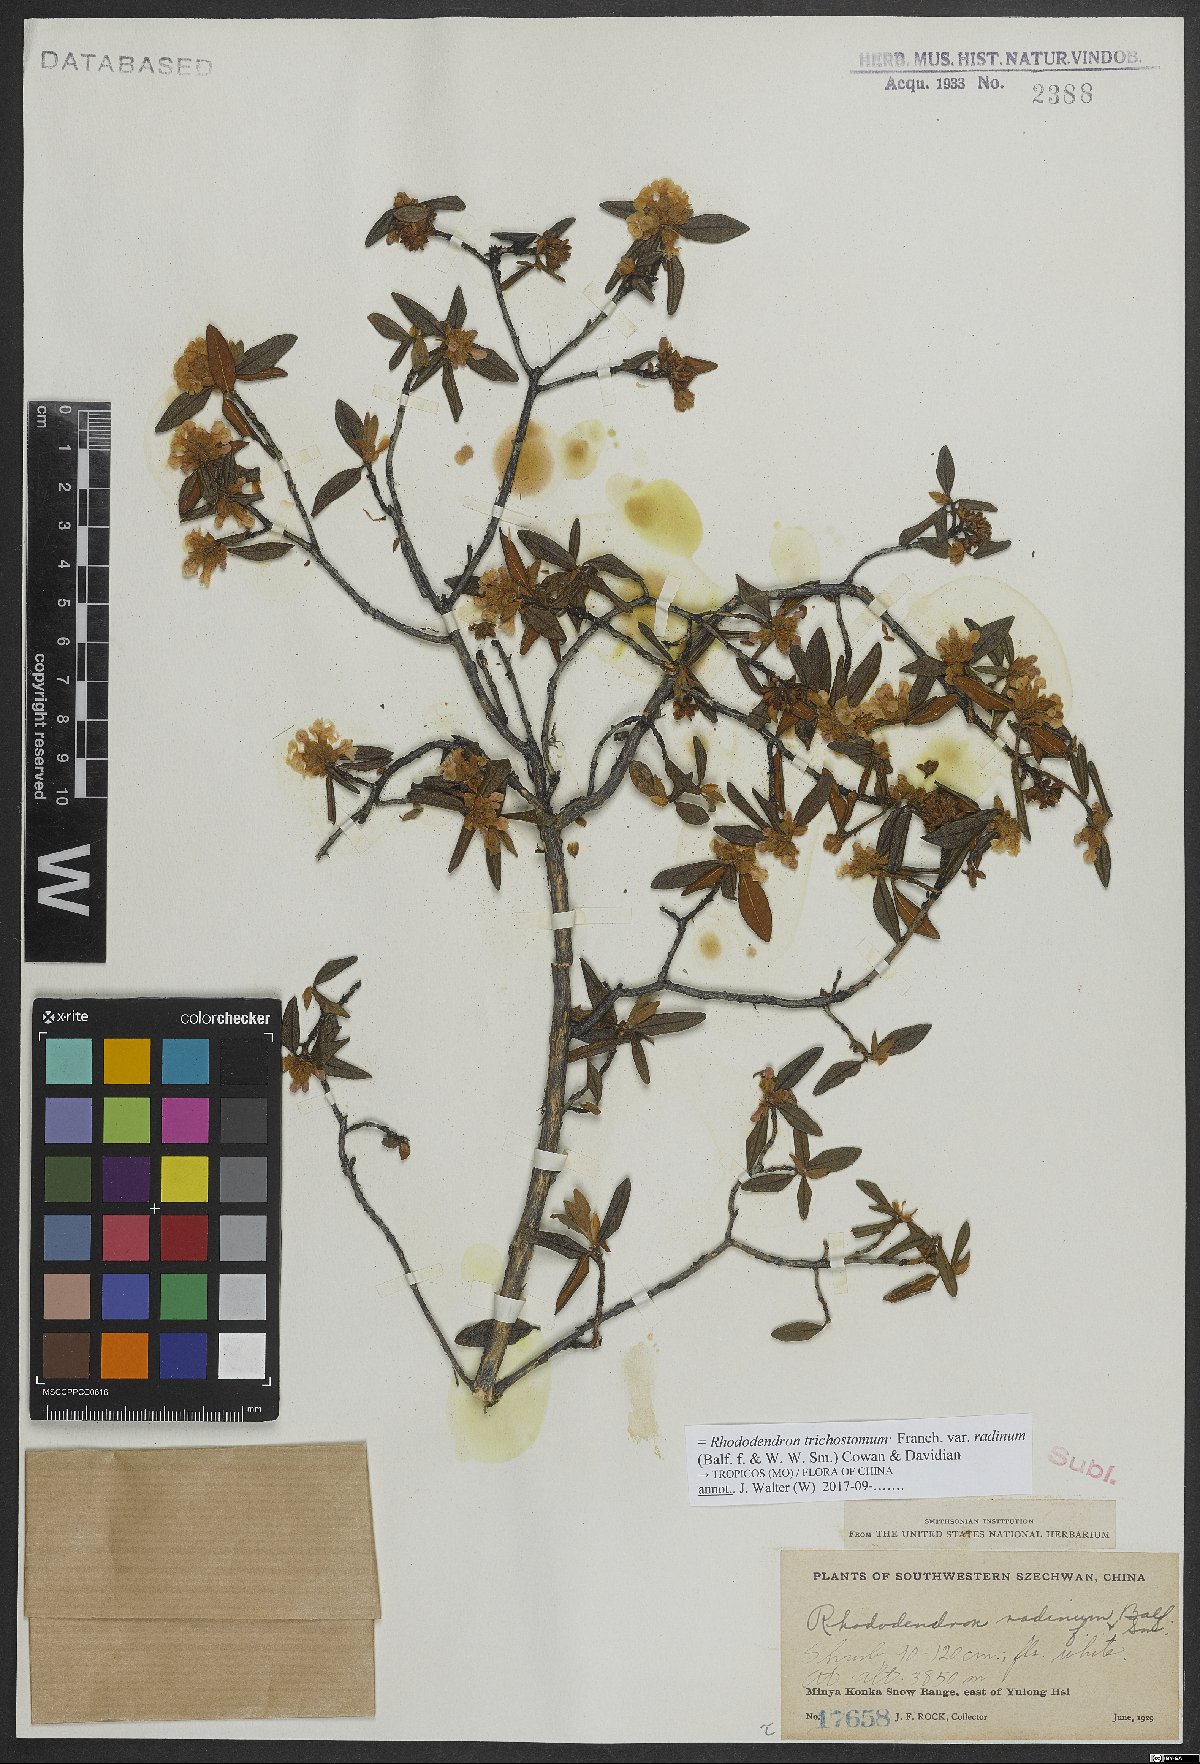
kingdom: Plantae
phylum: Tracheophyta
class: Magnoliopsida
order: Ericales
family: Ericaceae
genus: Rhododendron
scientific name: Rhododendron trichostomum
